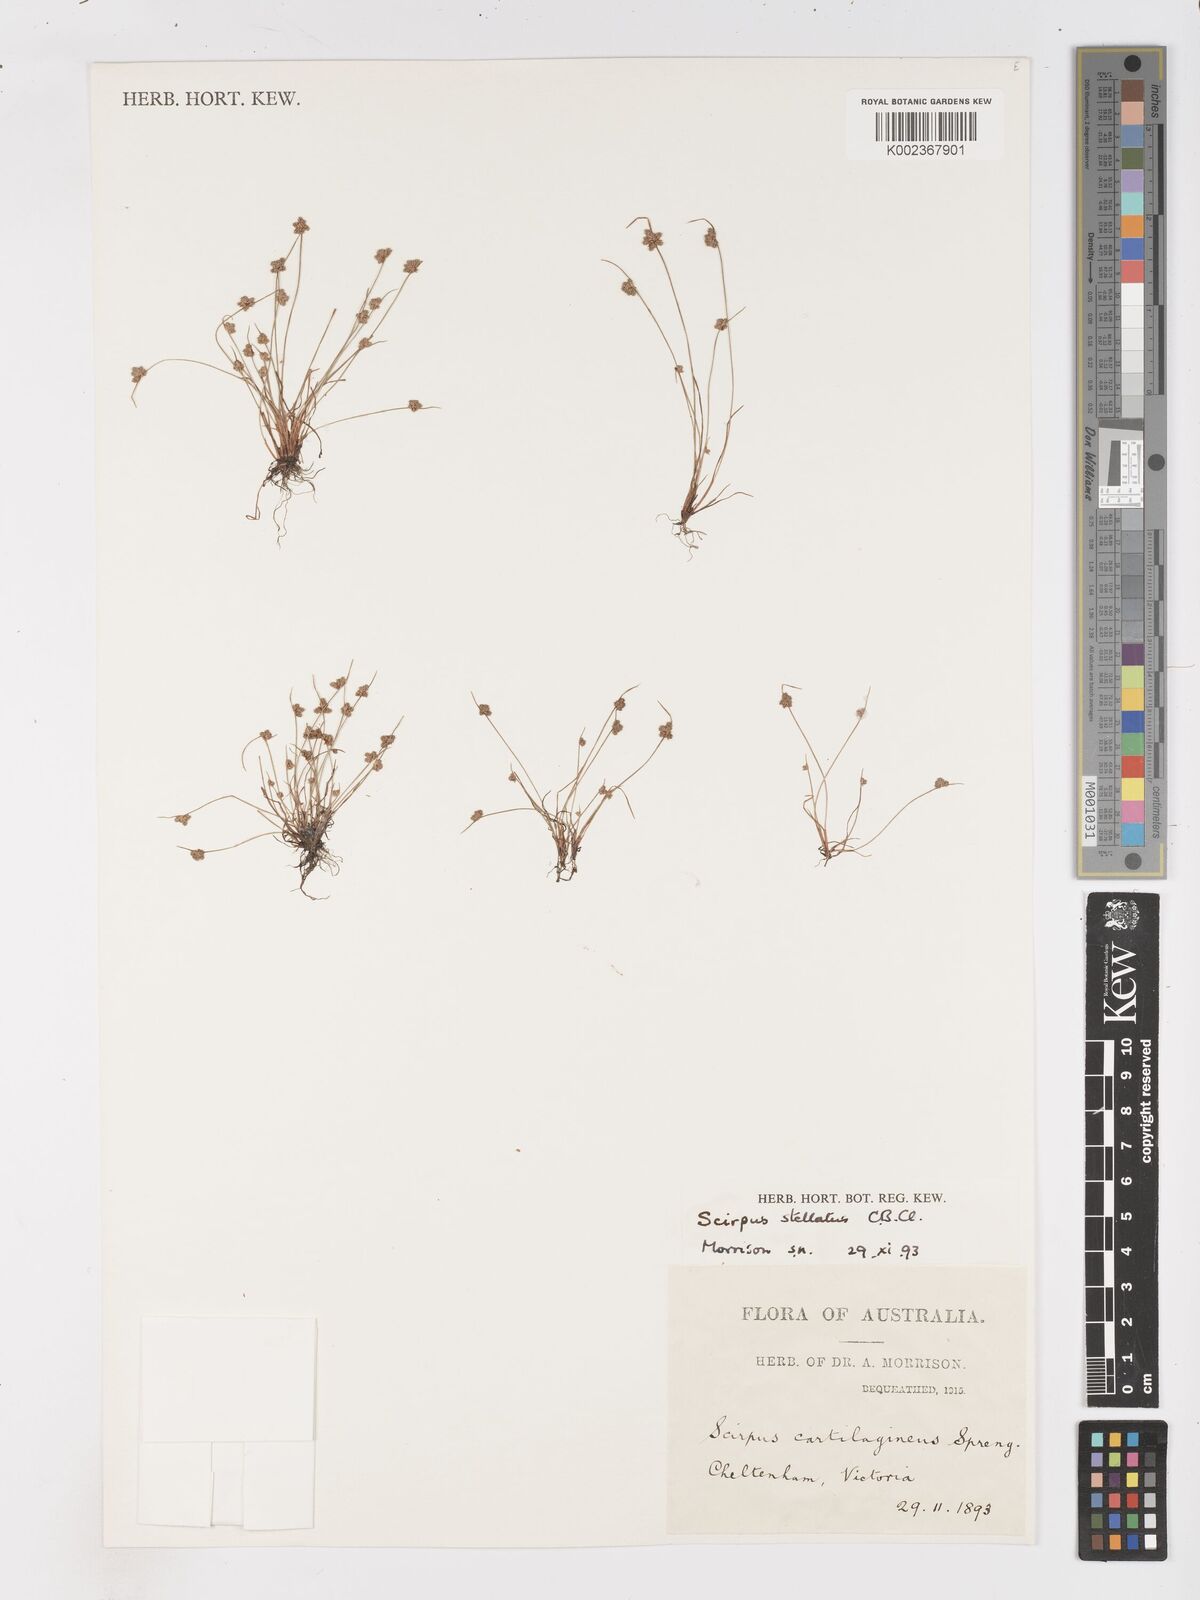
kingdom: Plantae
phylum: Tracheophyta
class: Liliopsida
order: Poales
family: Cyperaceae
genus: Isolepis
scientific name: Isolepis stellata
